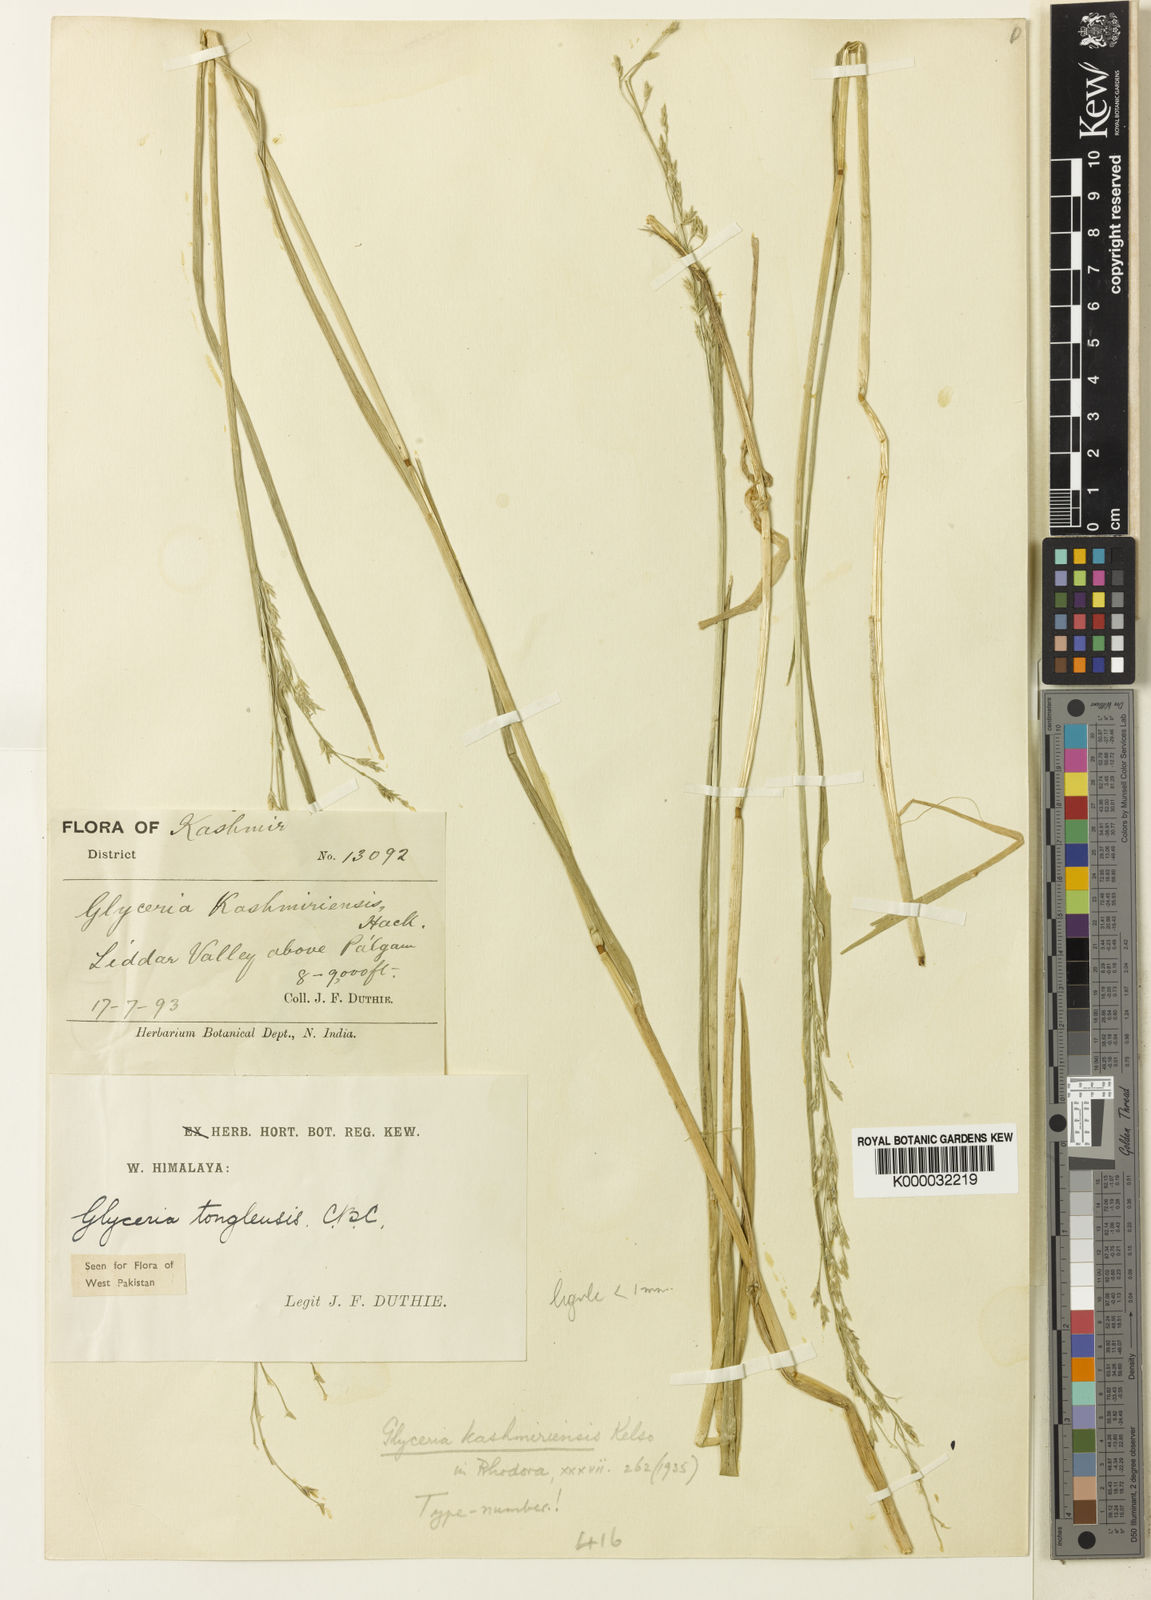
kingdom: Plantae
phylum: Tracheophyta
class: Liliopsida
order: Poales
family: Poaceae
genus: Glyceria
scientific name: Glyceria tonglensis
